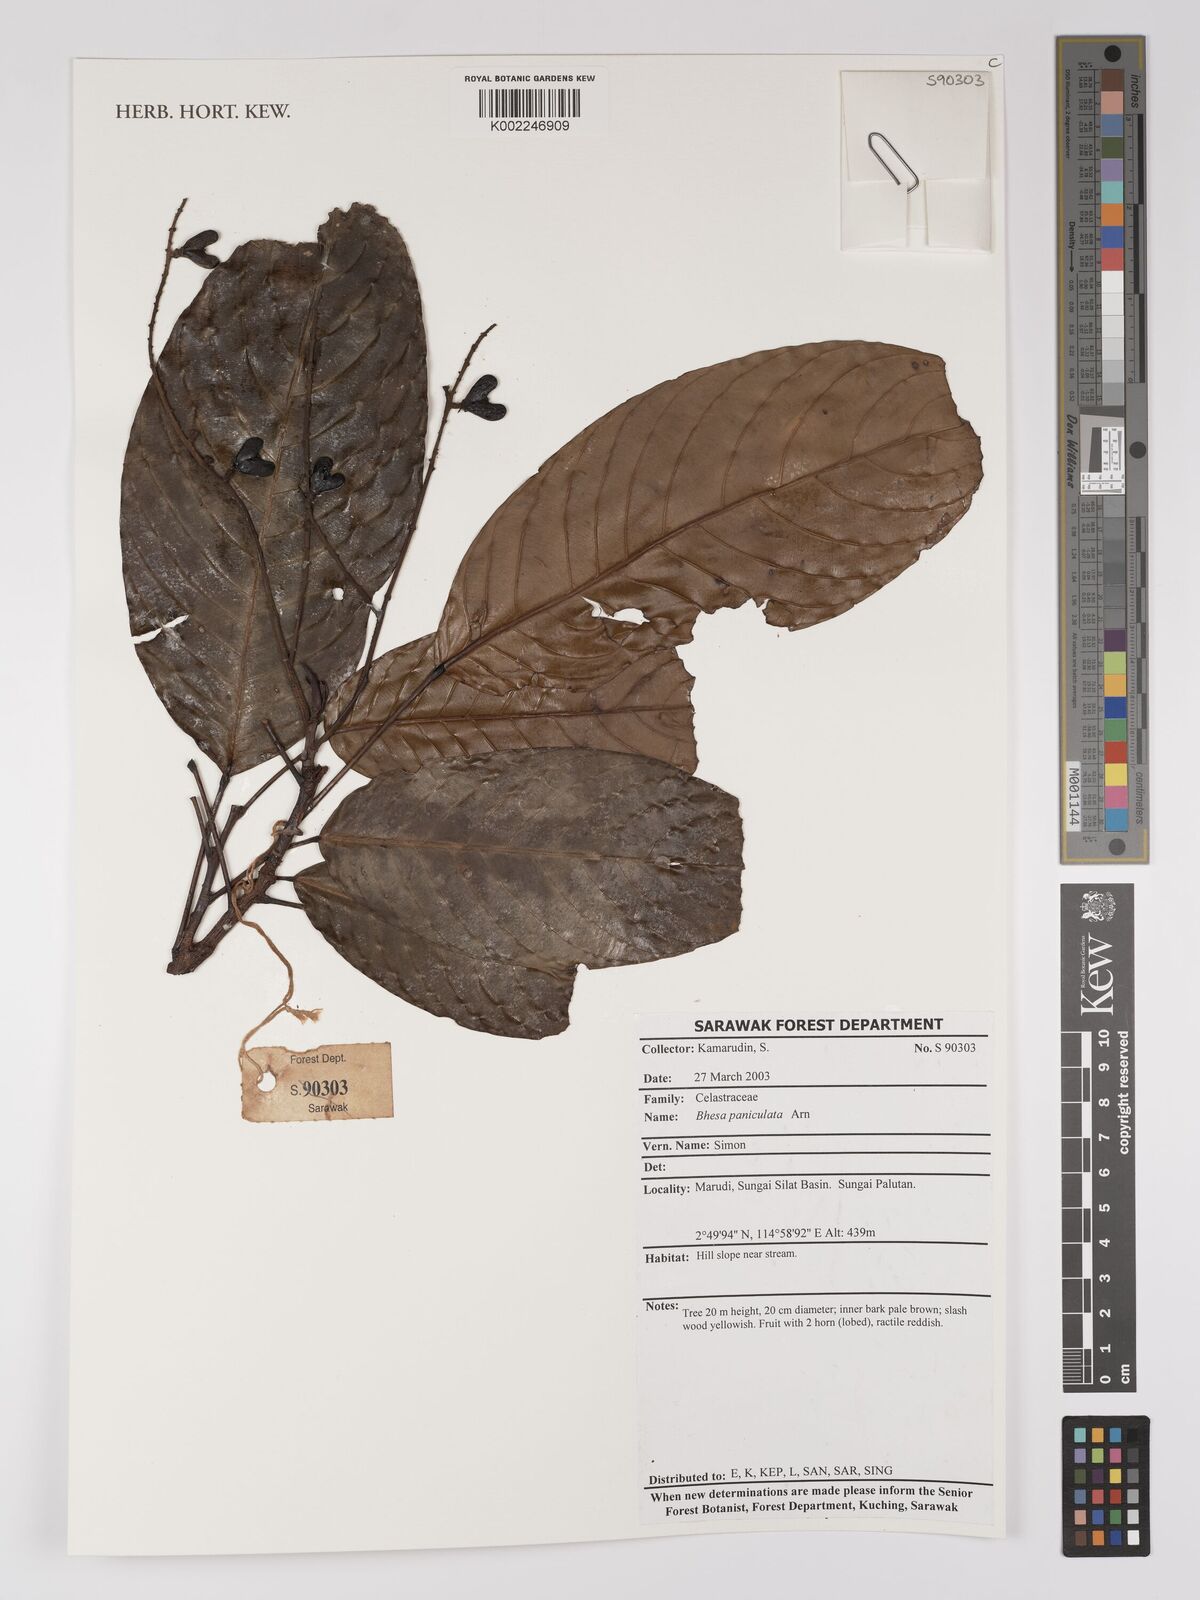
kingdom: Plantae
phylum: Tracheophyta
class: Magnoliopsida
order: Malpighiales
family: Centroplacaceae
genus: Bhesa
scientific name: Bhesa paniculata
